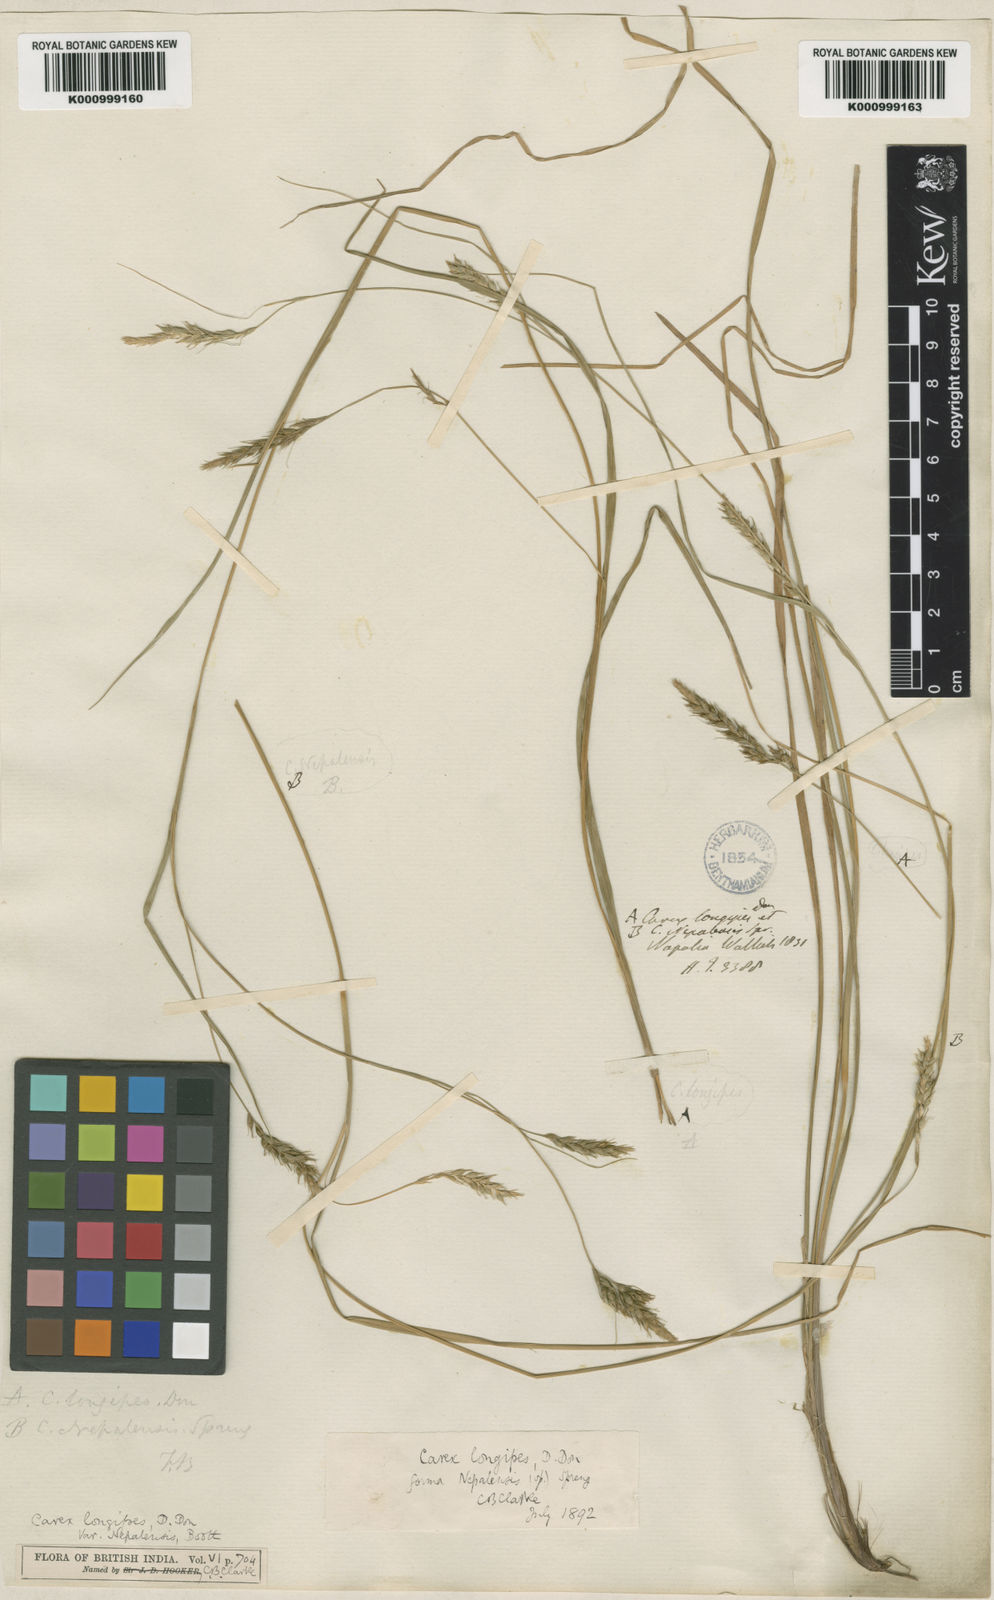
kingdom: Plantae
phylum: Tracheophyta
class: Liliopsida
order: Poales
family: Cyperaceae
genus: Carex
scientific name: Carex longipes
